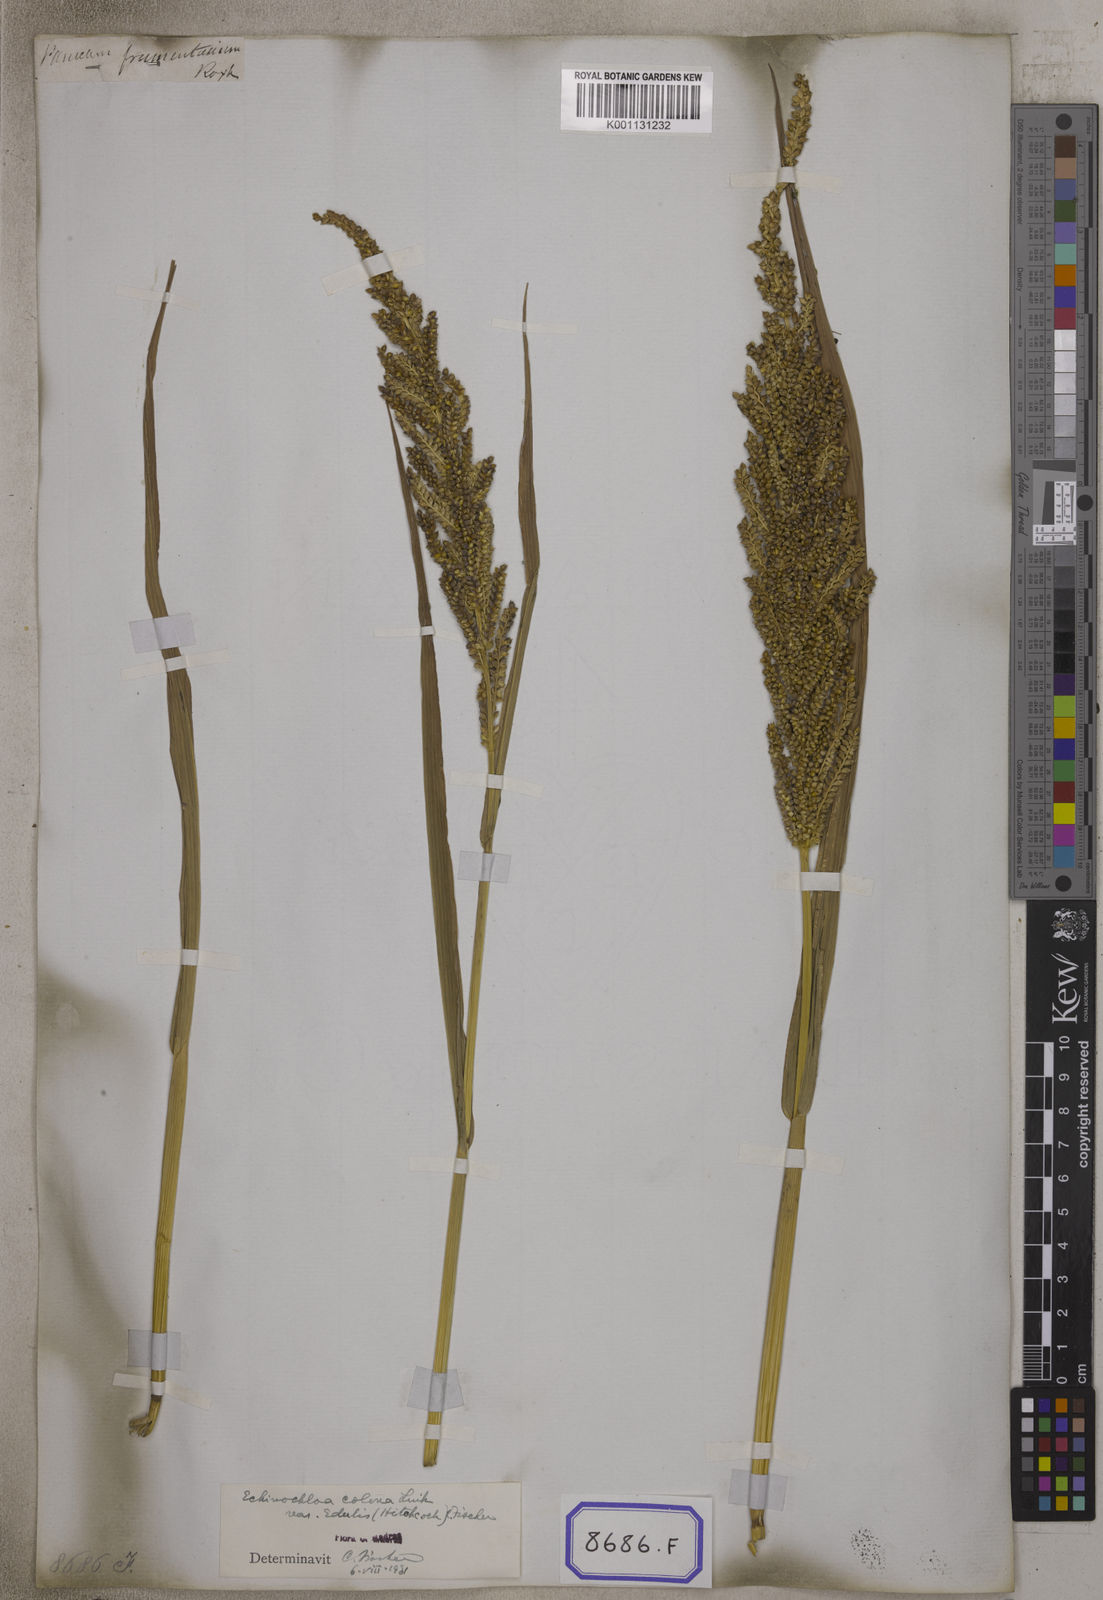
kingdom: Plantae
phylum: Tracheophyta
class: Liliopsida
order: Poales
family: Poaceae
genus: Panicum
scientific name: Panicum
